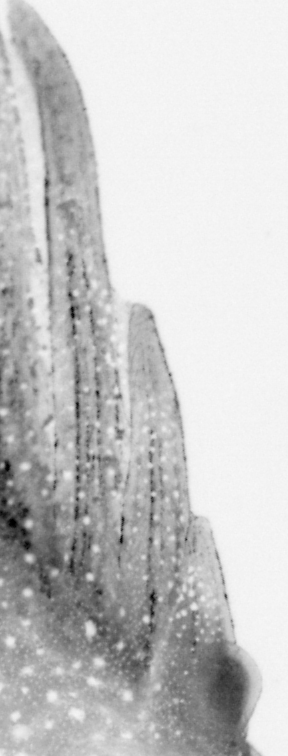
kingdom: Animalia
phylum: Chordata
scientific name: Chordata
